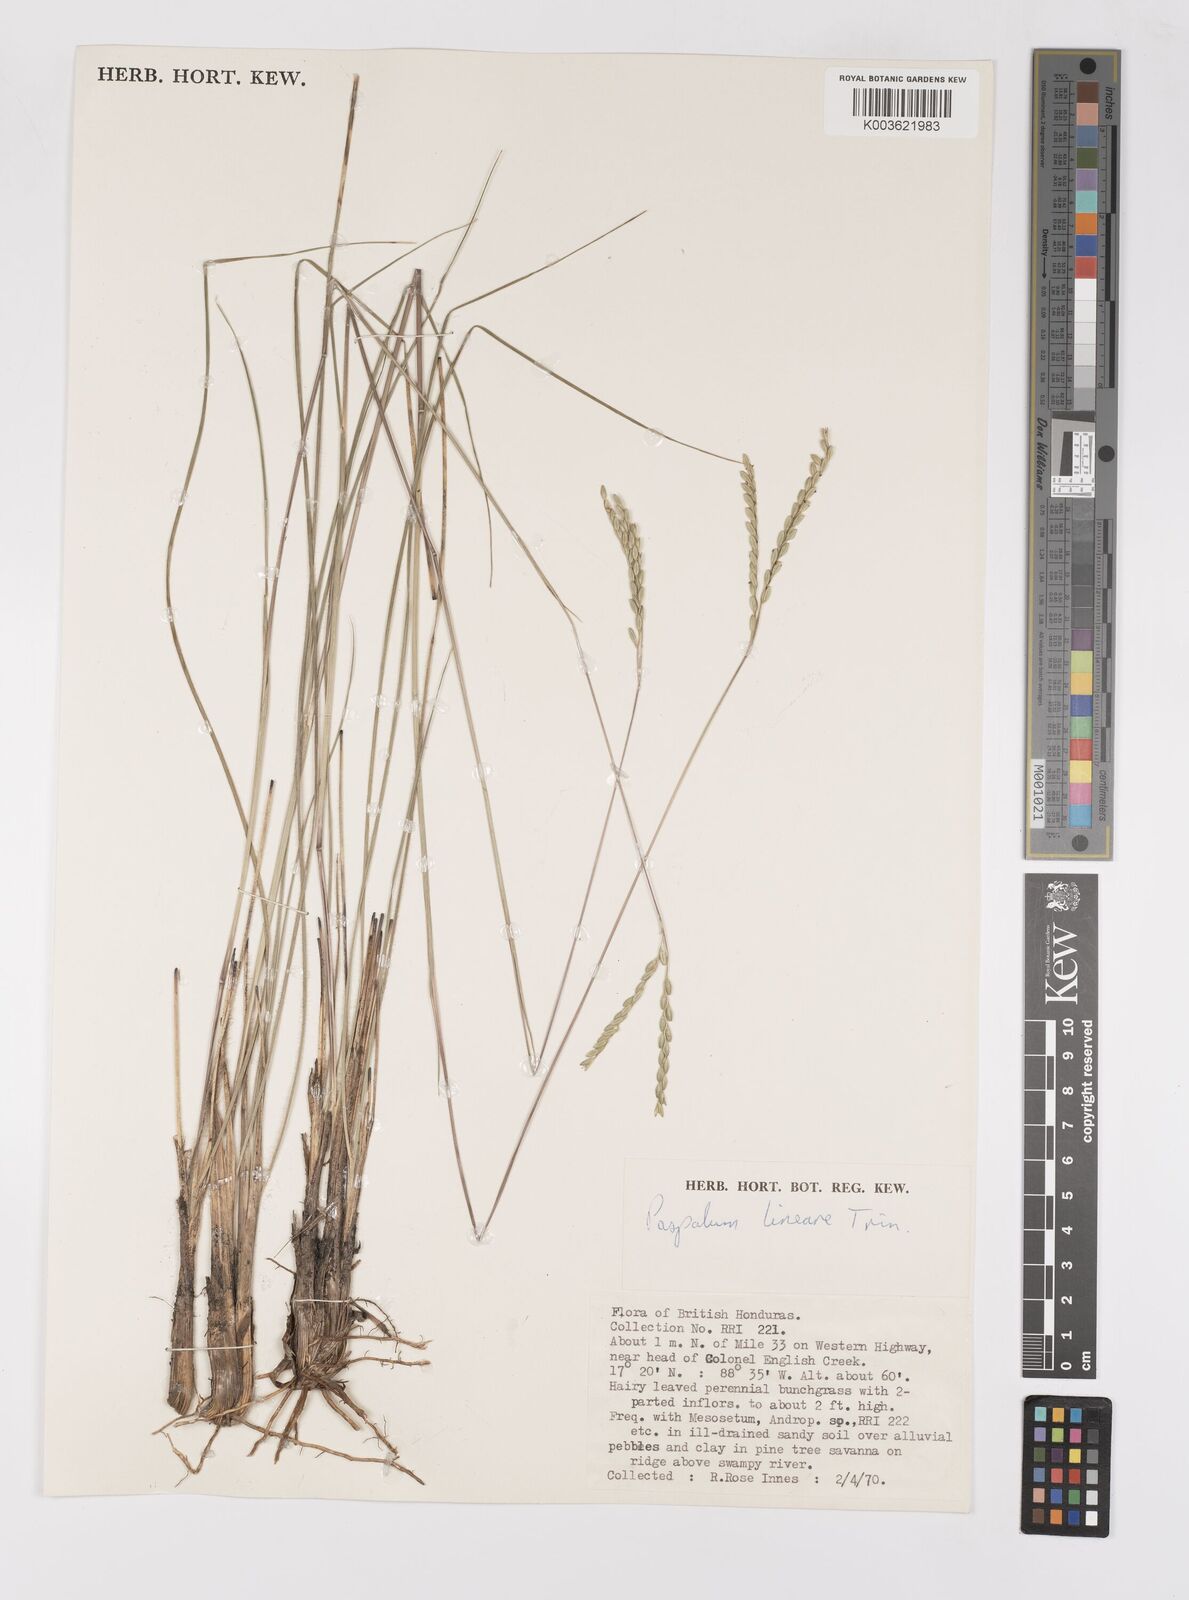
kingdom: Plantae
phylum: Tracheophyta
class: Liliopsida
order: Poales
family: Poaceae
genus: Paspalum
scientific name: Paspalum lineare
